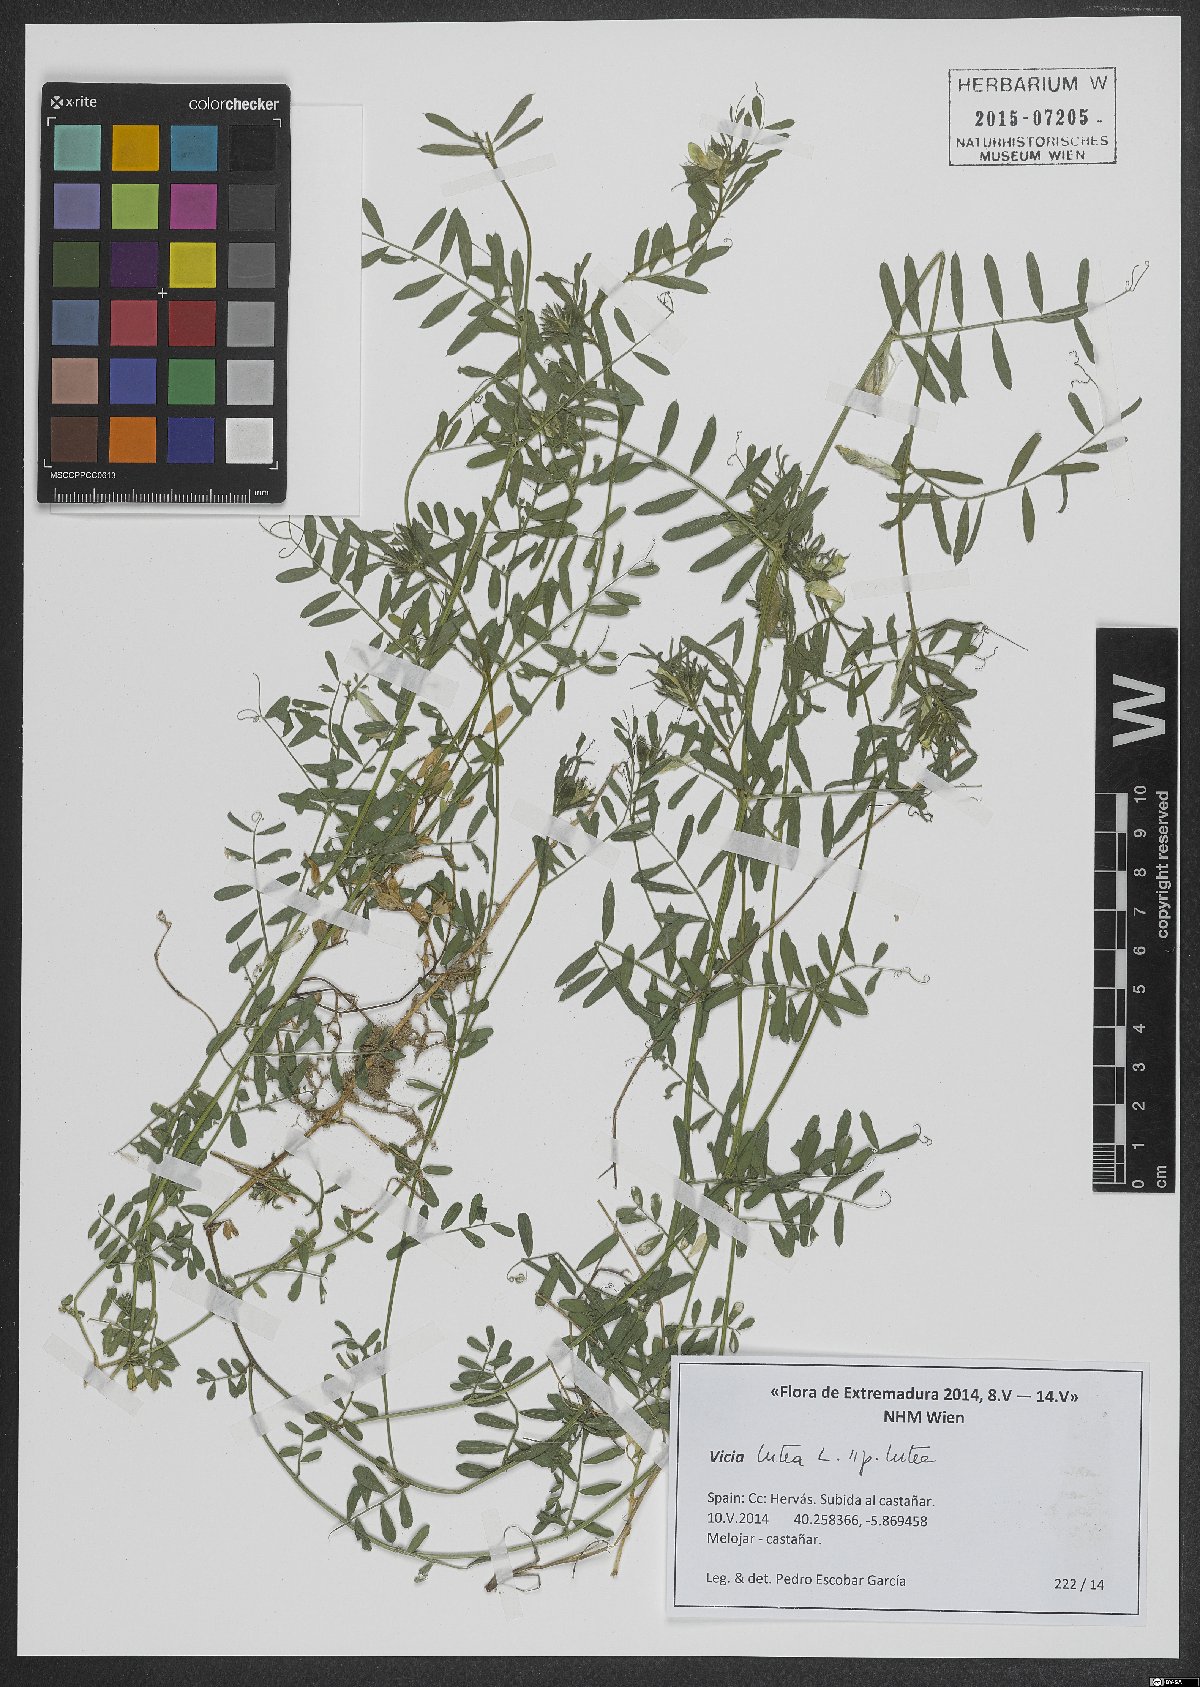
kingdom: Plantae
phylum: Tracheophyta
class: Magnoliopsida
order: Fabales
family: Fabaceae
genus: Vicia
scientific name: Vicia lutea
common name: Smooth yellow vetch
